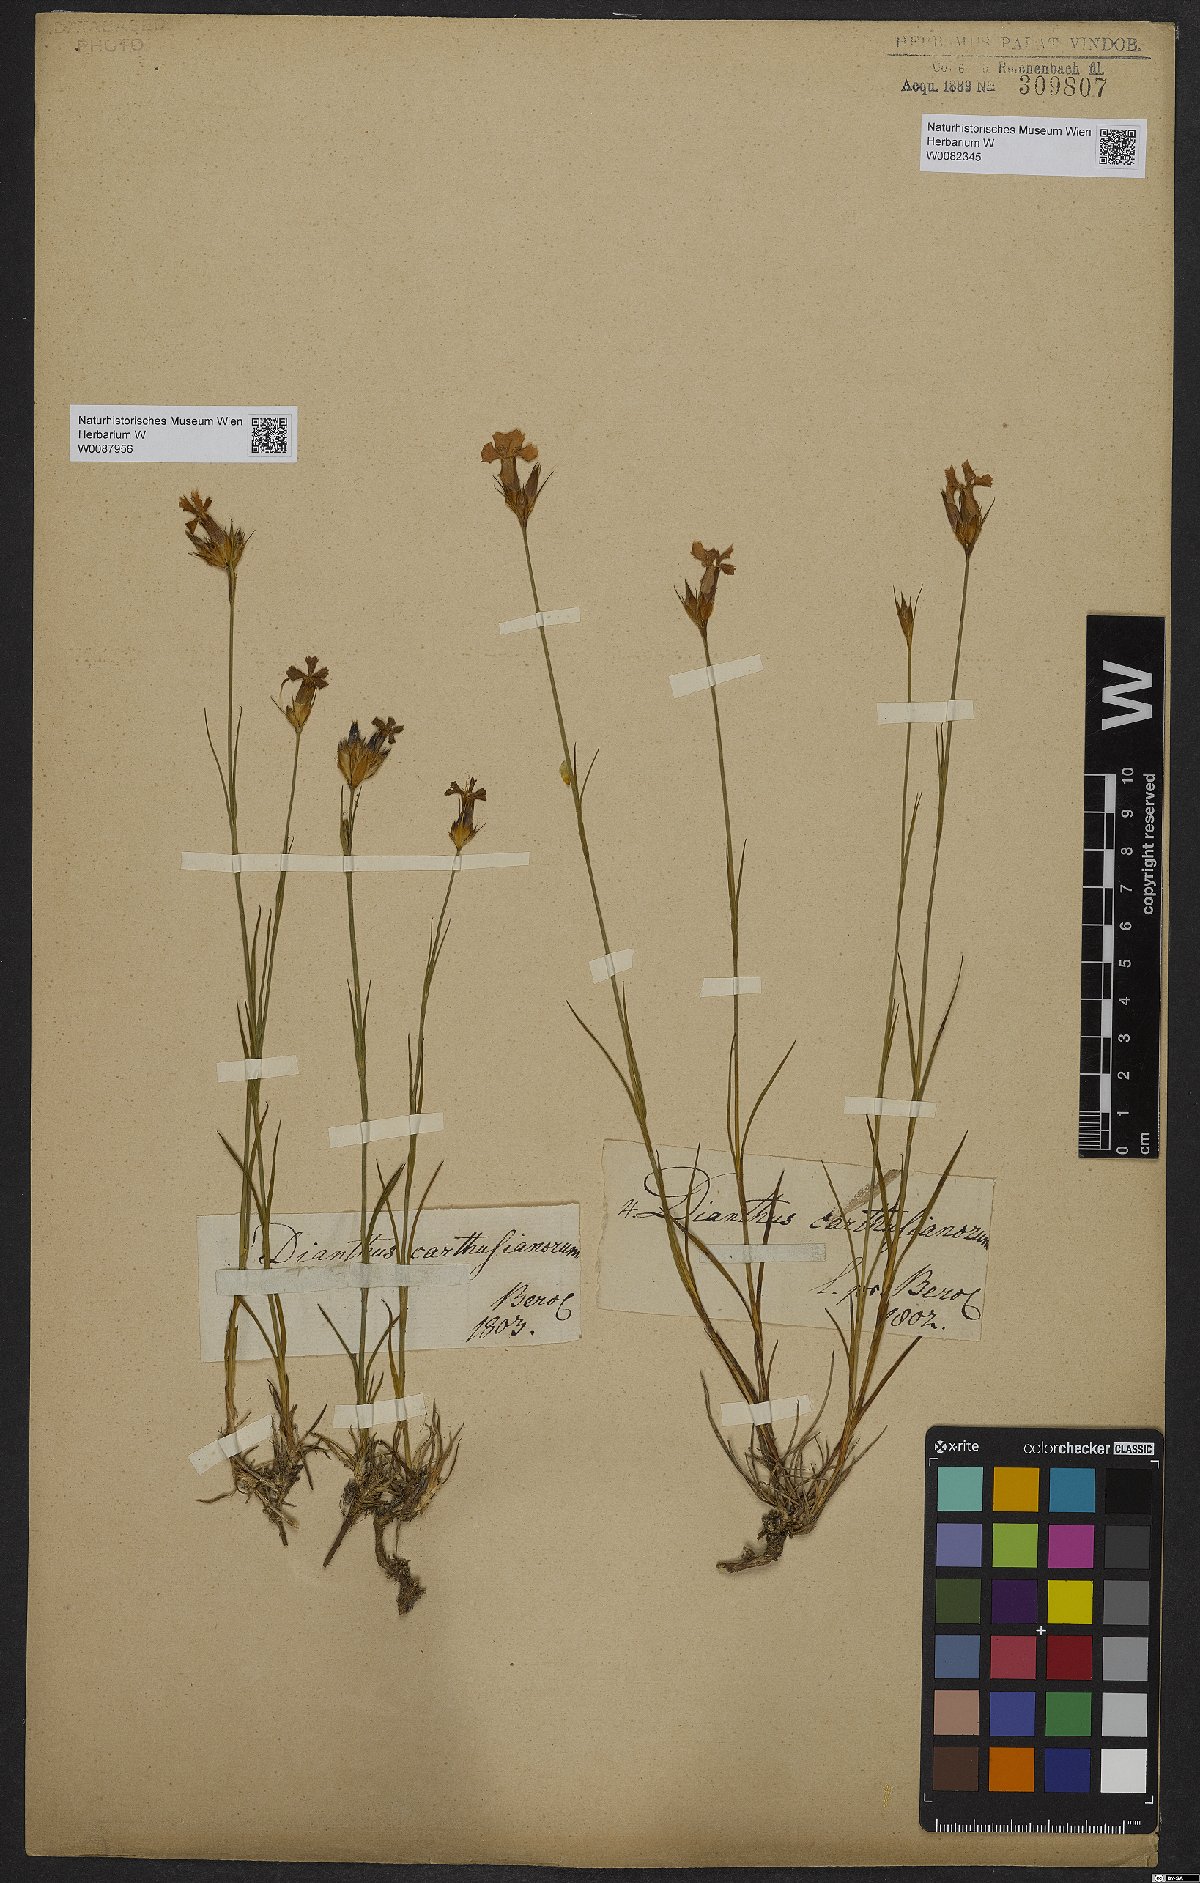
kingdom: Plantae
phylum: Tracheophyta
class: Magnoliopsida
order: Caryophyllales
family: Caryophyllaceae
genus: Dianthus
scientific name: Dianthus carthusianorum
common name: Carthusian pink
